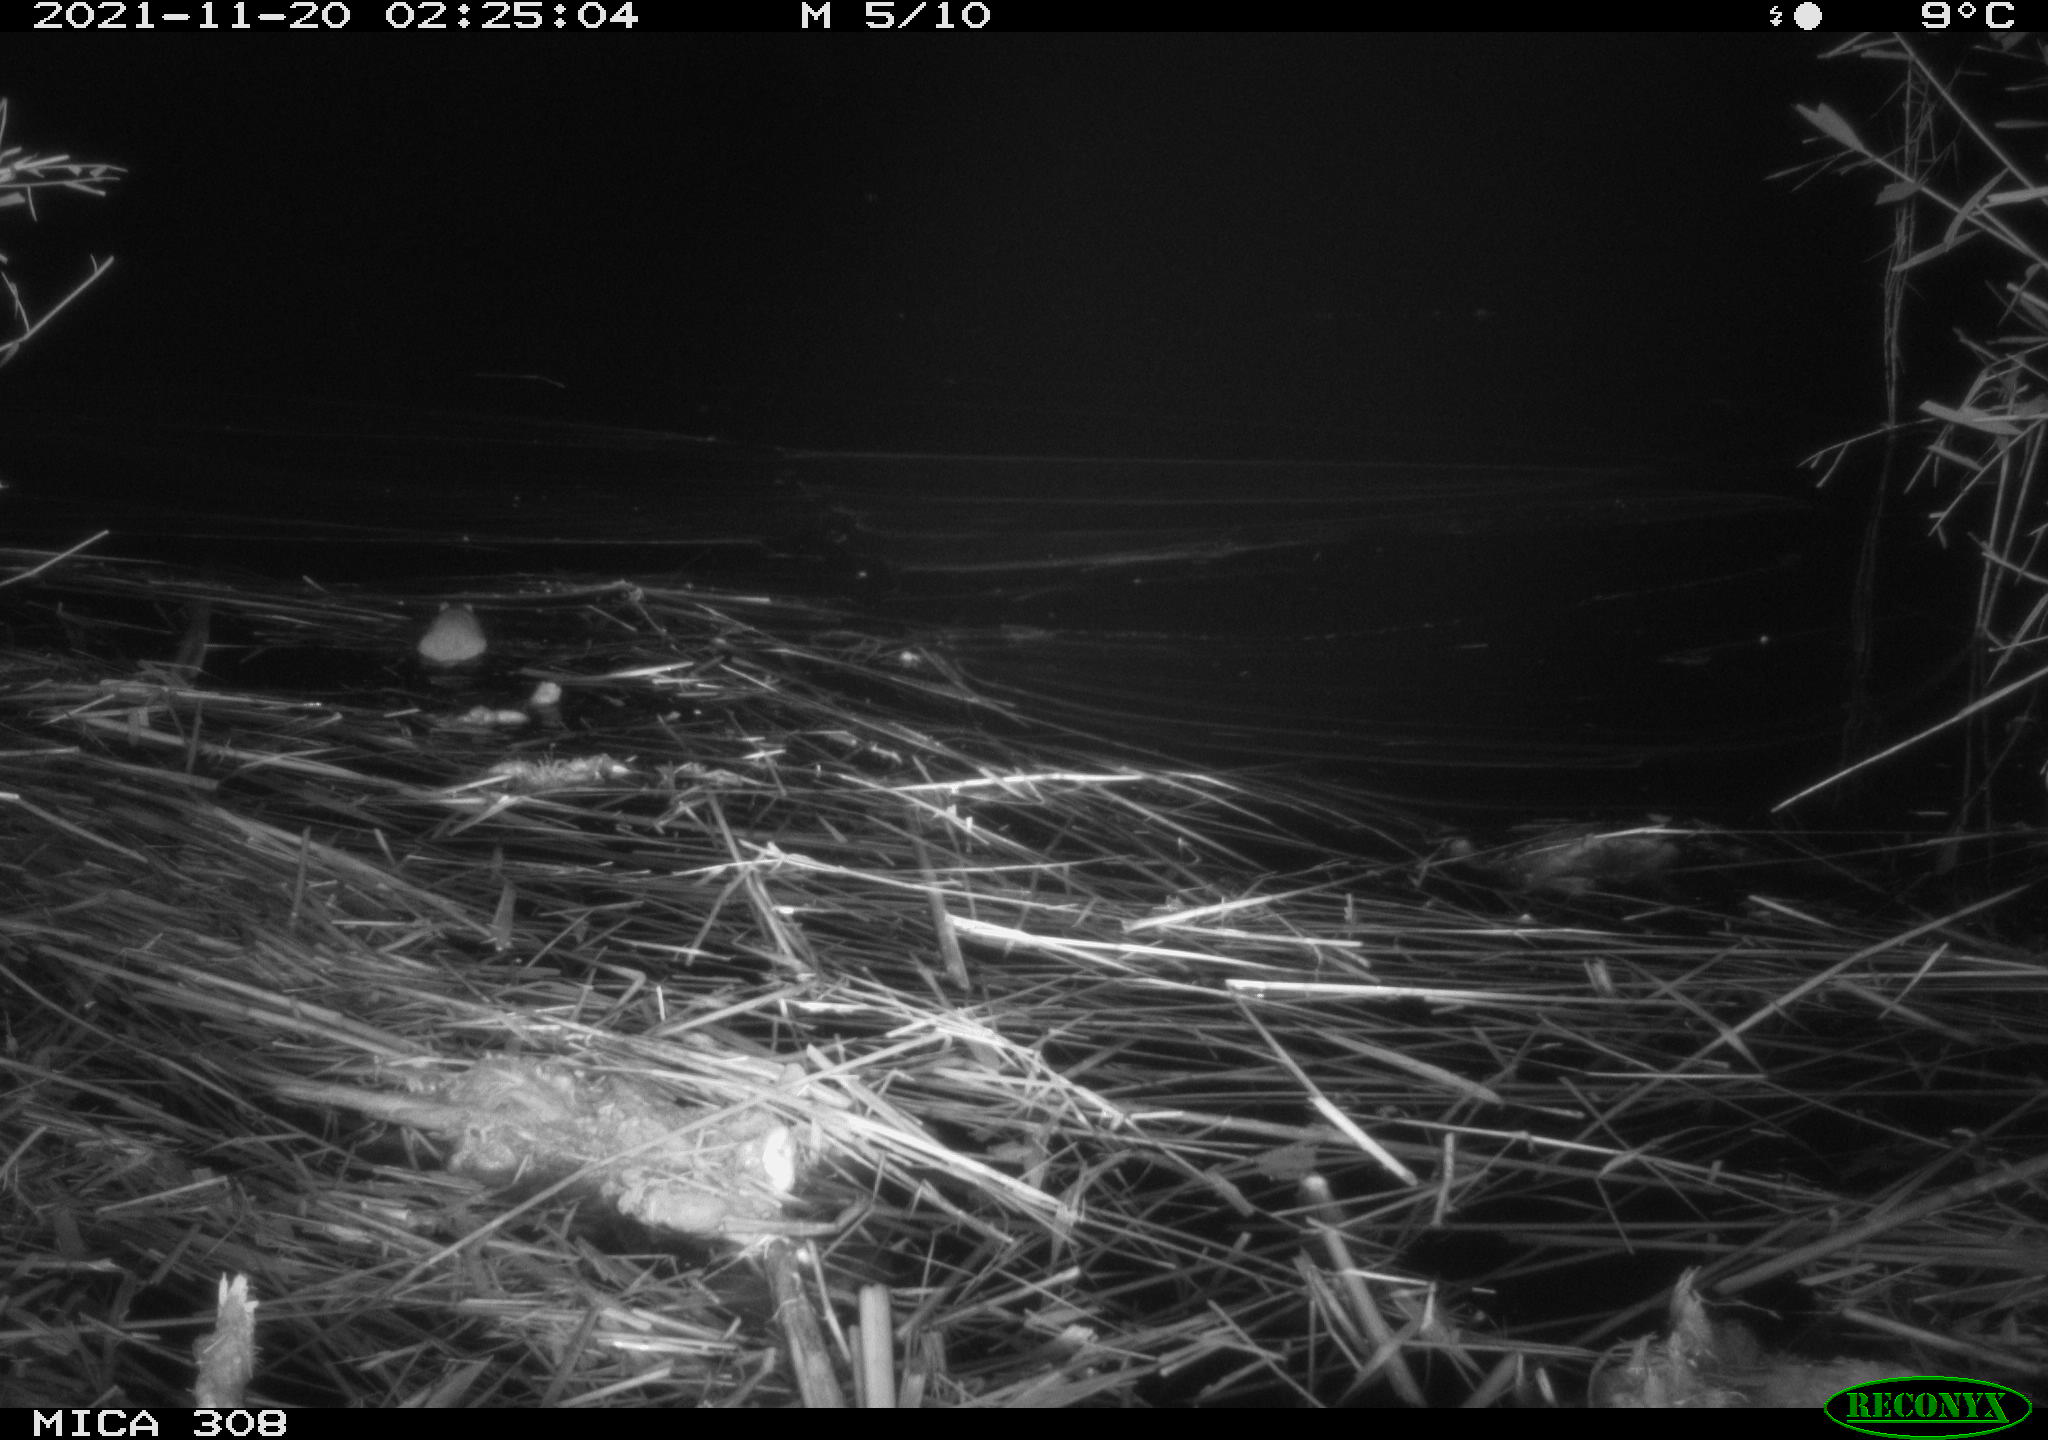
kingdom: Animalia
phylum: Chordata
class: Mammalia
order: Rodentia
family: Muridae
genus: Rattus
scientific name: Rattus norvegicus
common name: Brown rat
